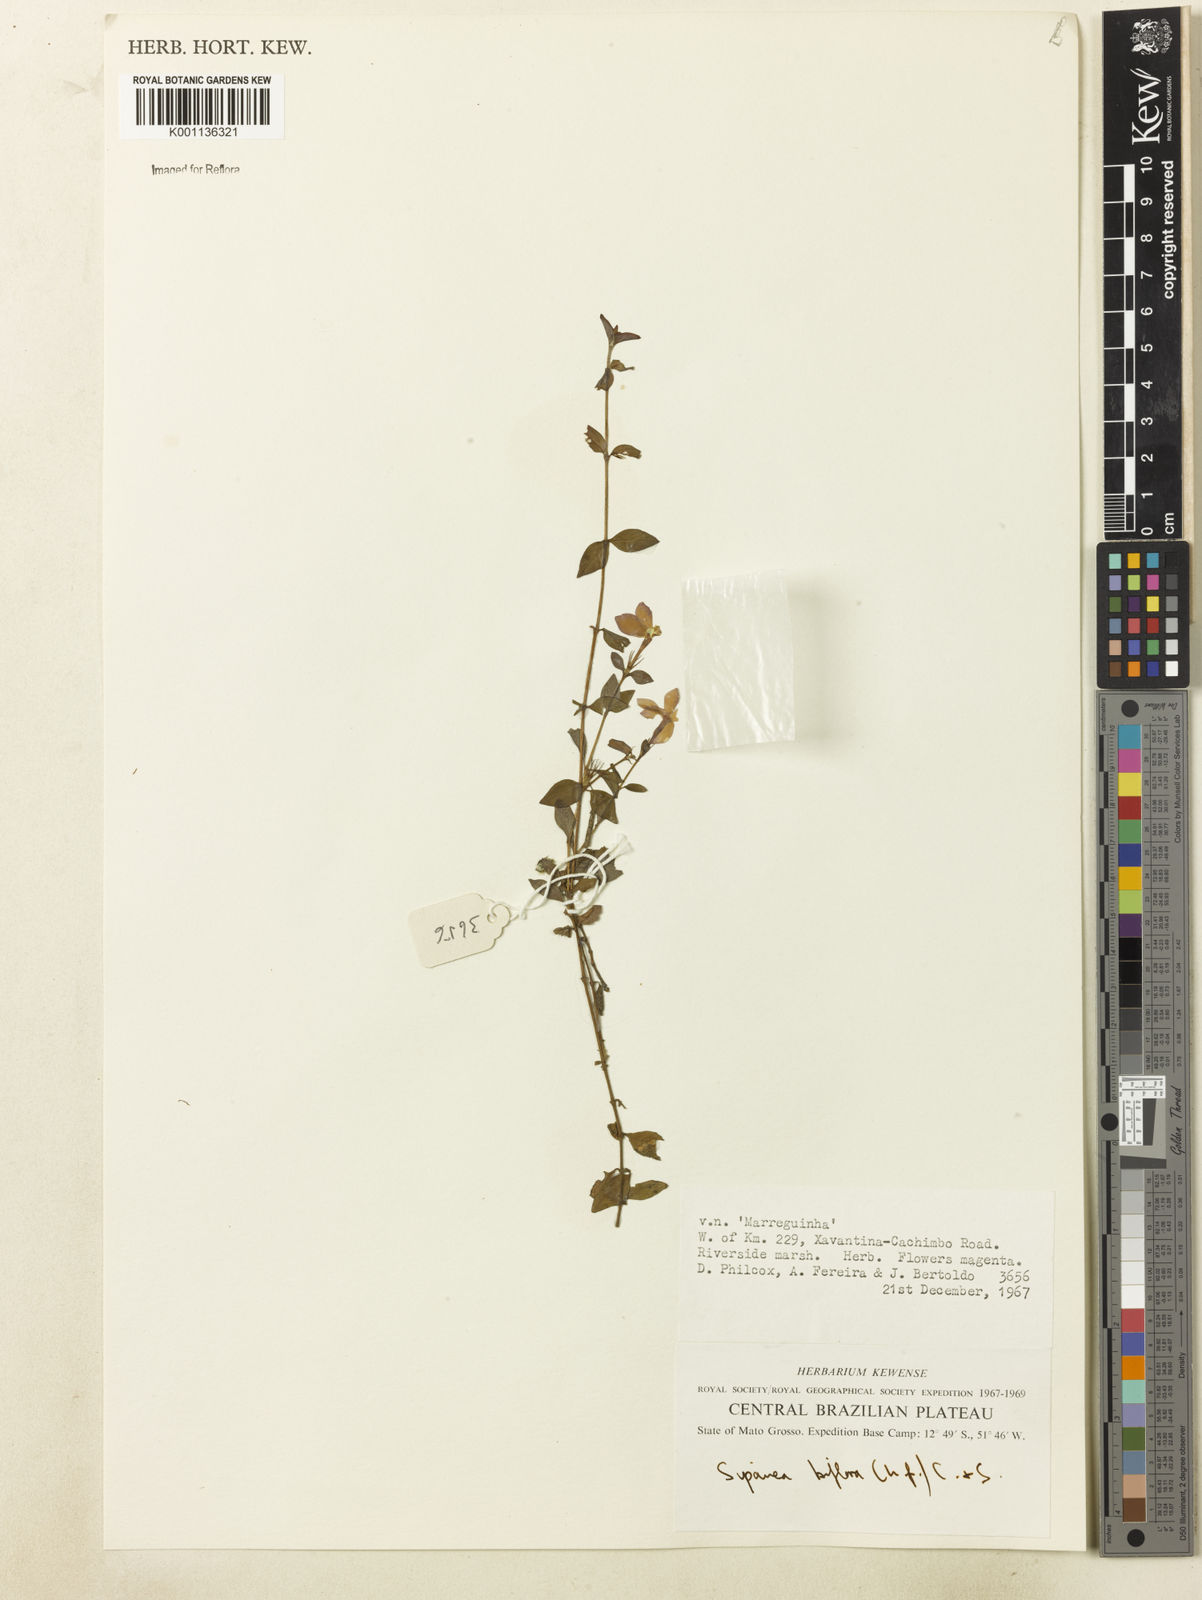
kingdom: Plantae
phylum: Tracheophyta
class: Magnoliopsida
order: Gentianales
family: Rubiaceae
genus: Sipanea
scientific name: Sipanea biflora
